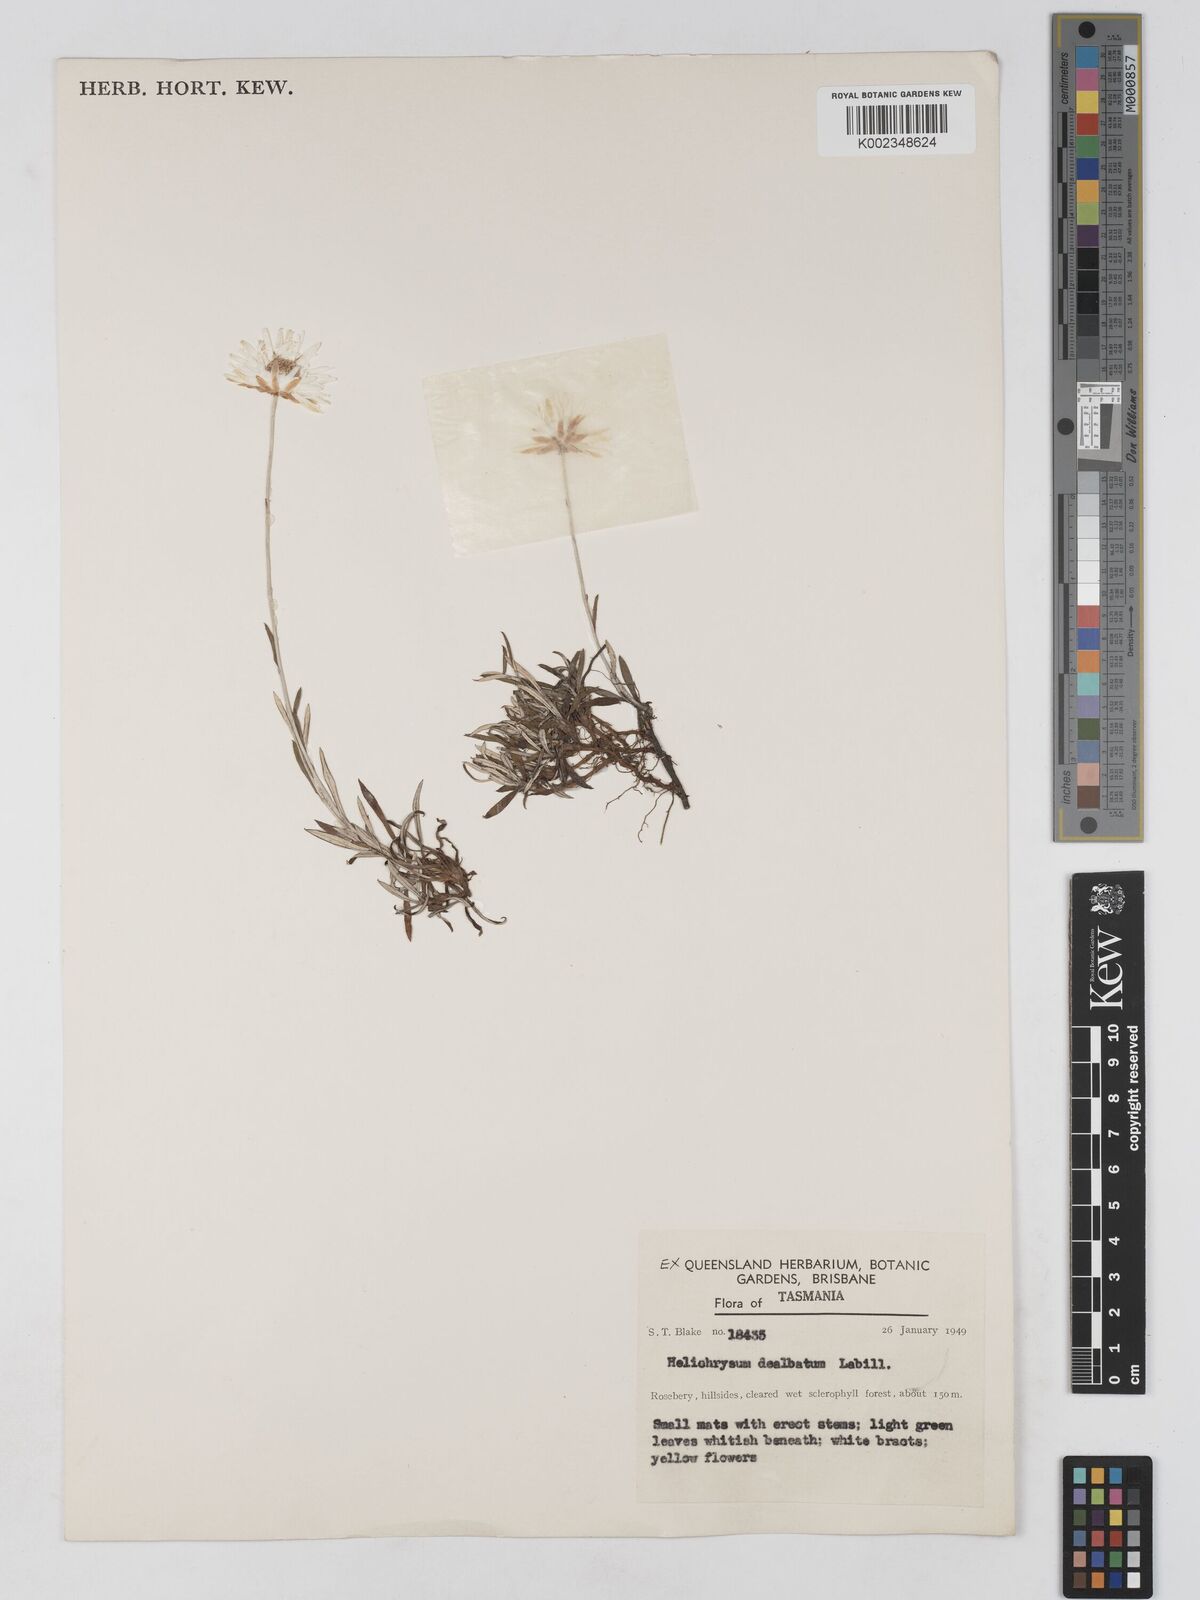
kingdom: Plantae
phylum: Tracheophyta
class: Magnoliopsida
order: Asterales
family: Asteraceae
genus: Argentipallium
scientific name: Argentipallium dealbatum
